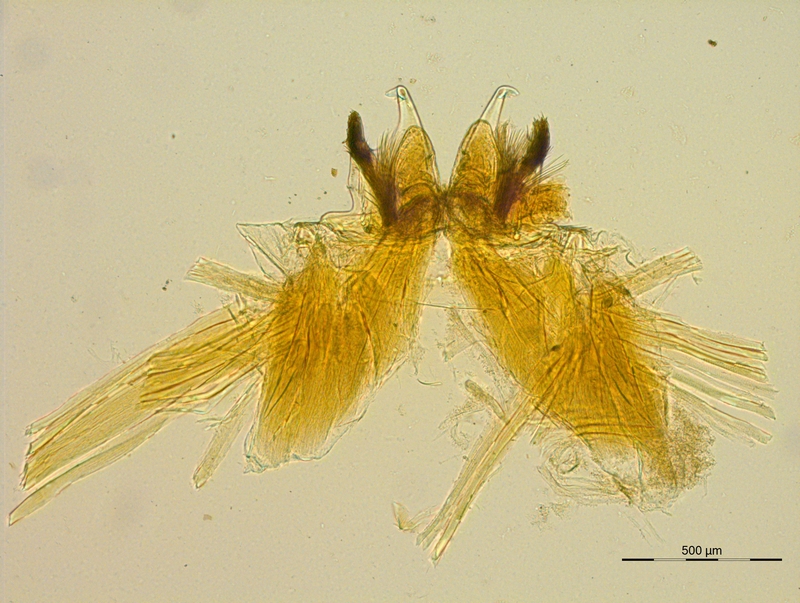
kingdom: Animalia
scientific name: Animalia
